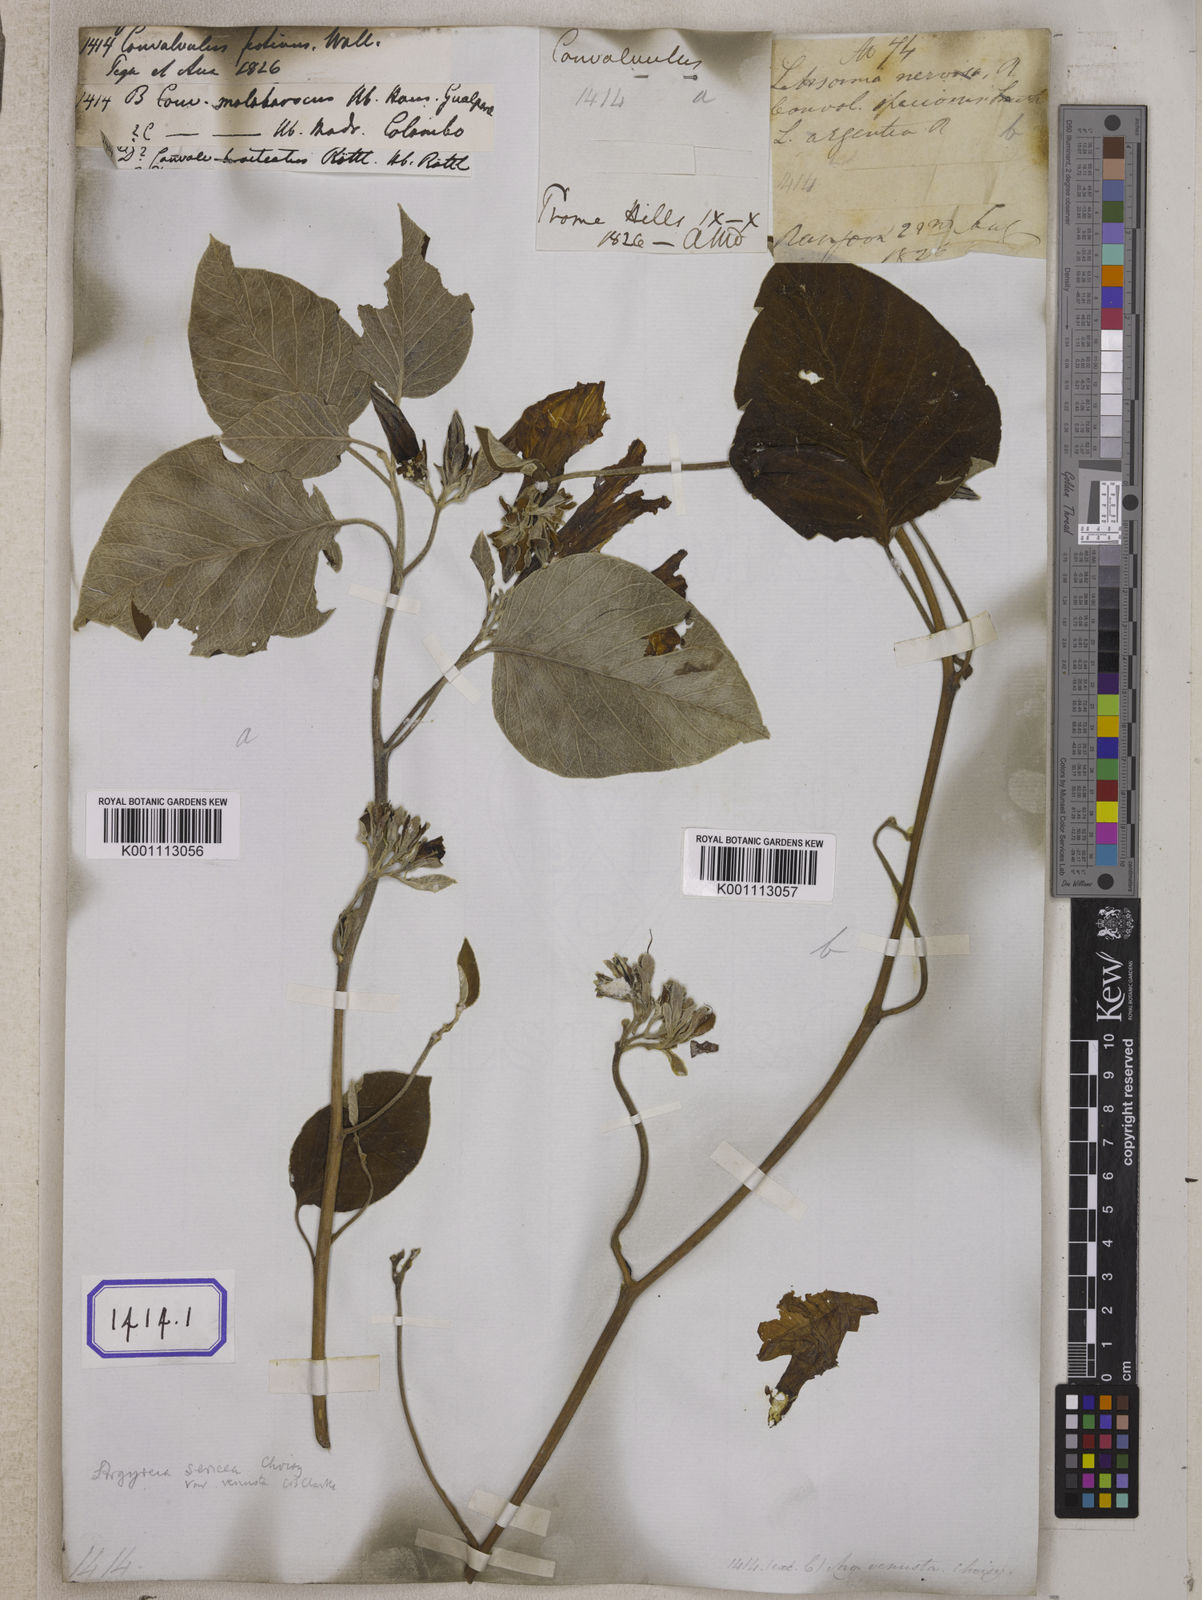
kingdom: Plantae
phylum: Tracheophyta
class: Magnoliopsida
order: Solanales
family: Convolvulaceae
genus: Argyreia
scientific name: Argyreia argentea
